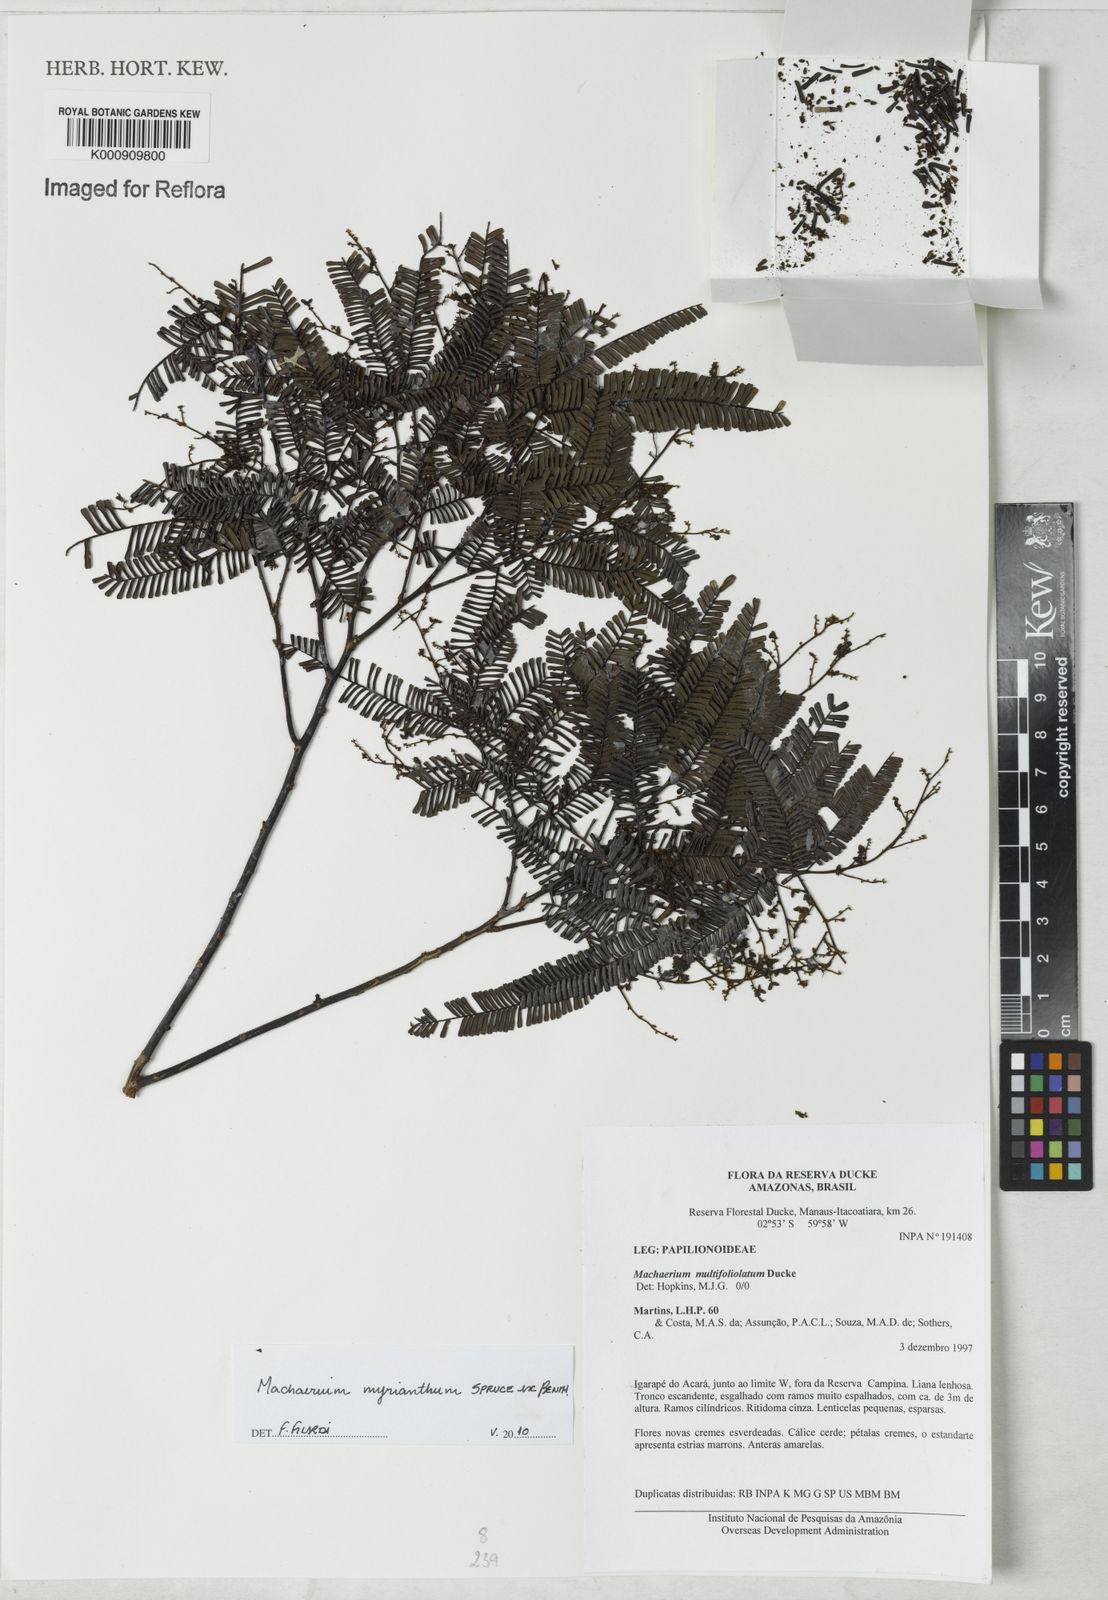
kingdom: Plantae
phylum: Tracheophyta
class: Magnoliopsida
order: Fabales
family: Fabaceae
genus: Machaerium
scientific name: Machaerium multifoliolatum
